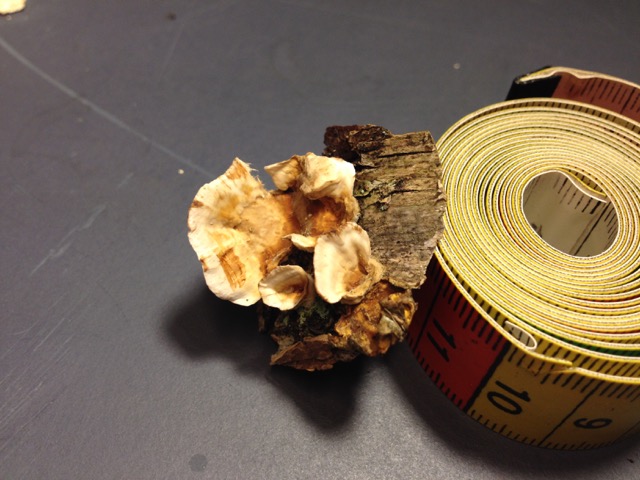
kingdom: Fungi
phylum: Basidiomycota
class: Agaricomycetes
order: Russulales
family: Stereaceae
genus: Stereum
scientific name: Stereum hirsutum
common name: håret lædersvamp
